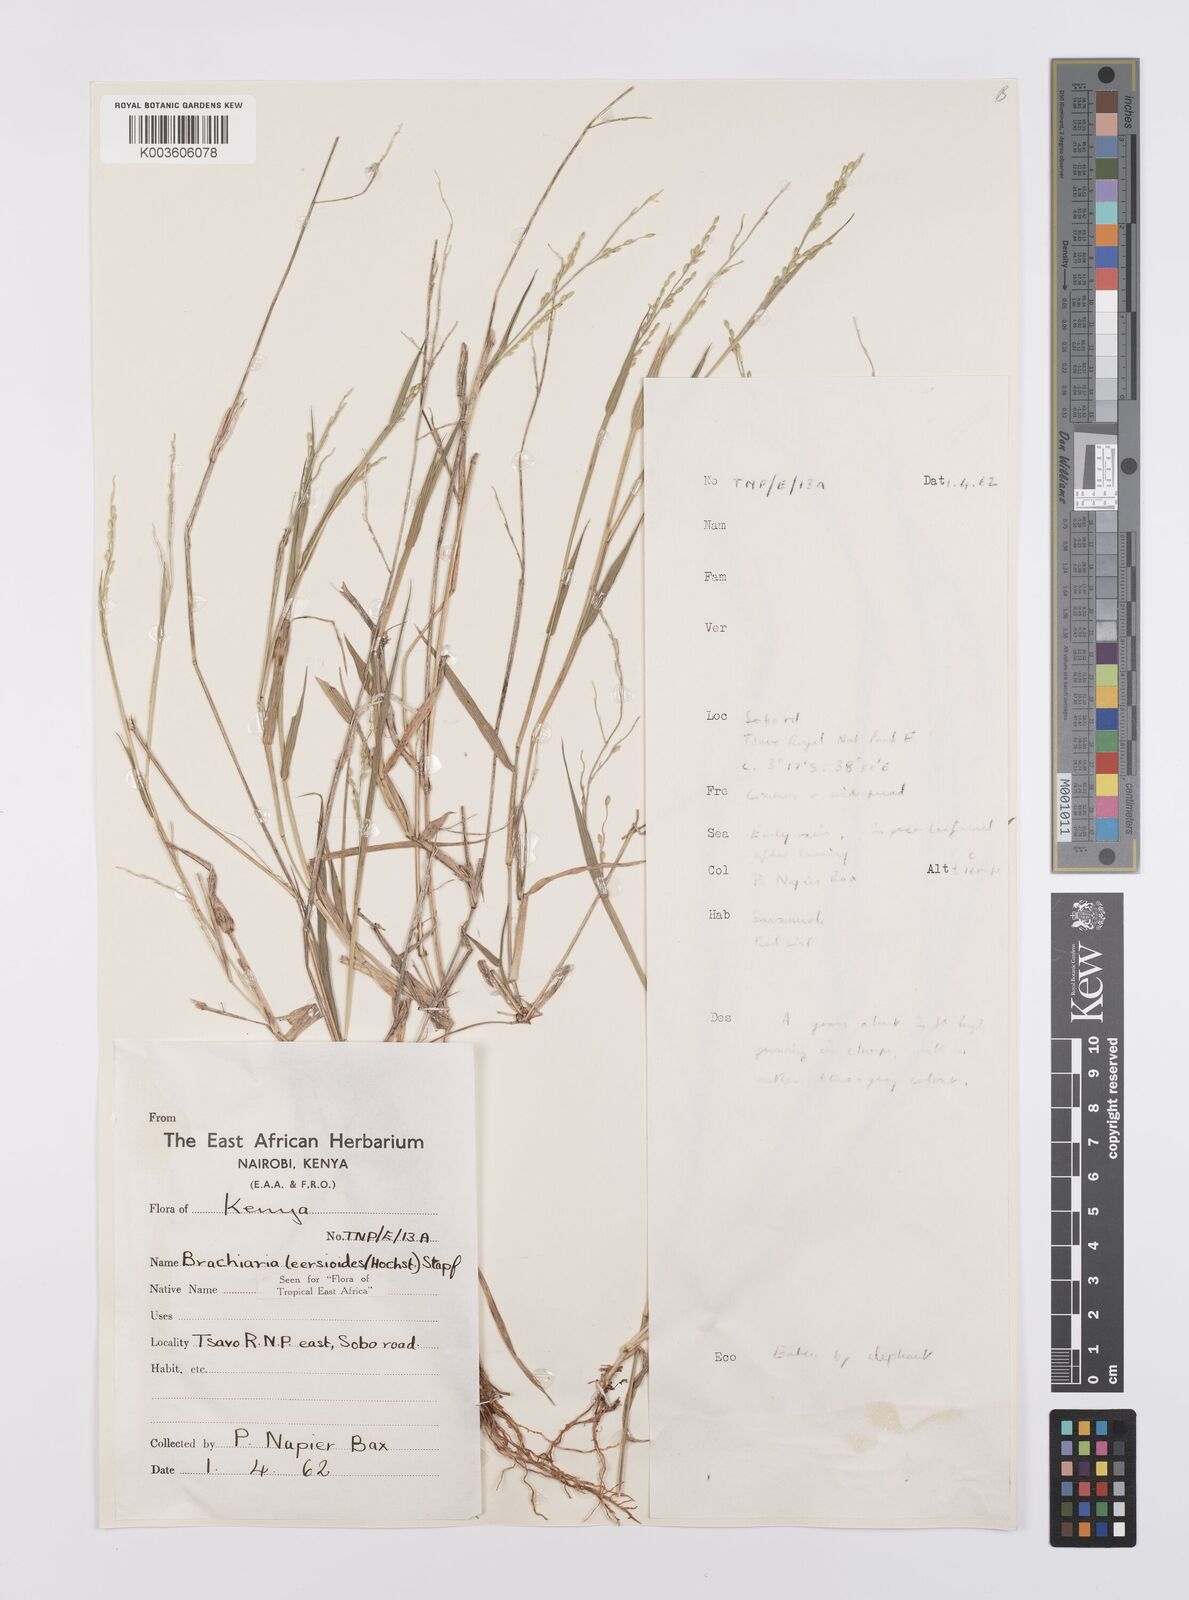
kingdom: Plantae
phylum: Tracheophyta
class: Liliopsida
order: Poales
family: Poaceae
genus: Urochloa
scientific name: Urochloa leersioides
